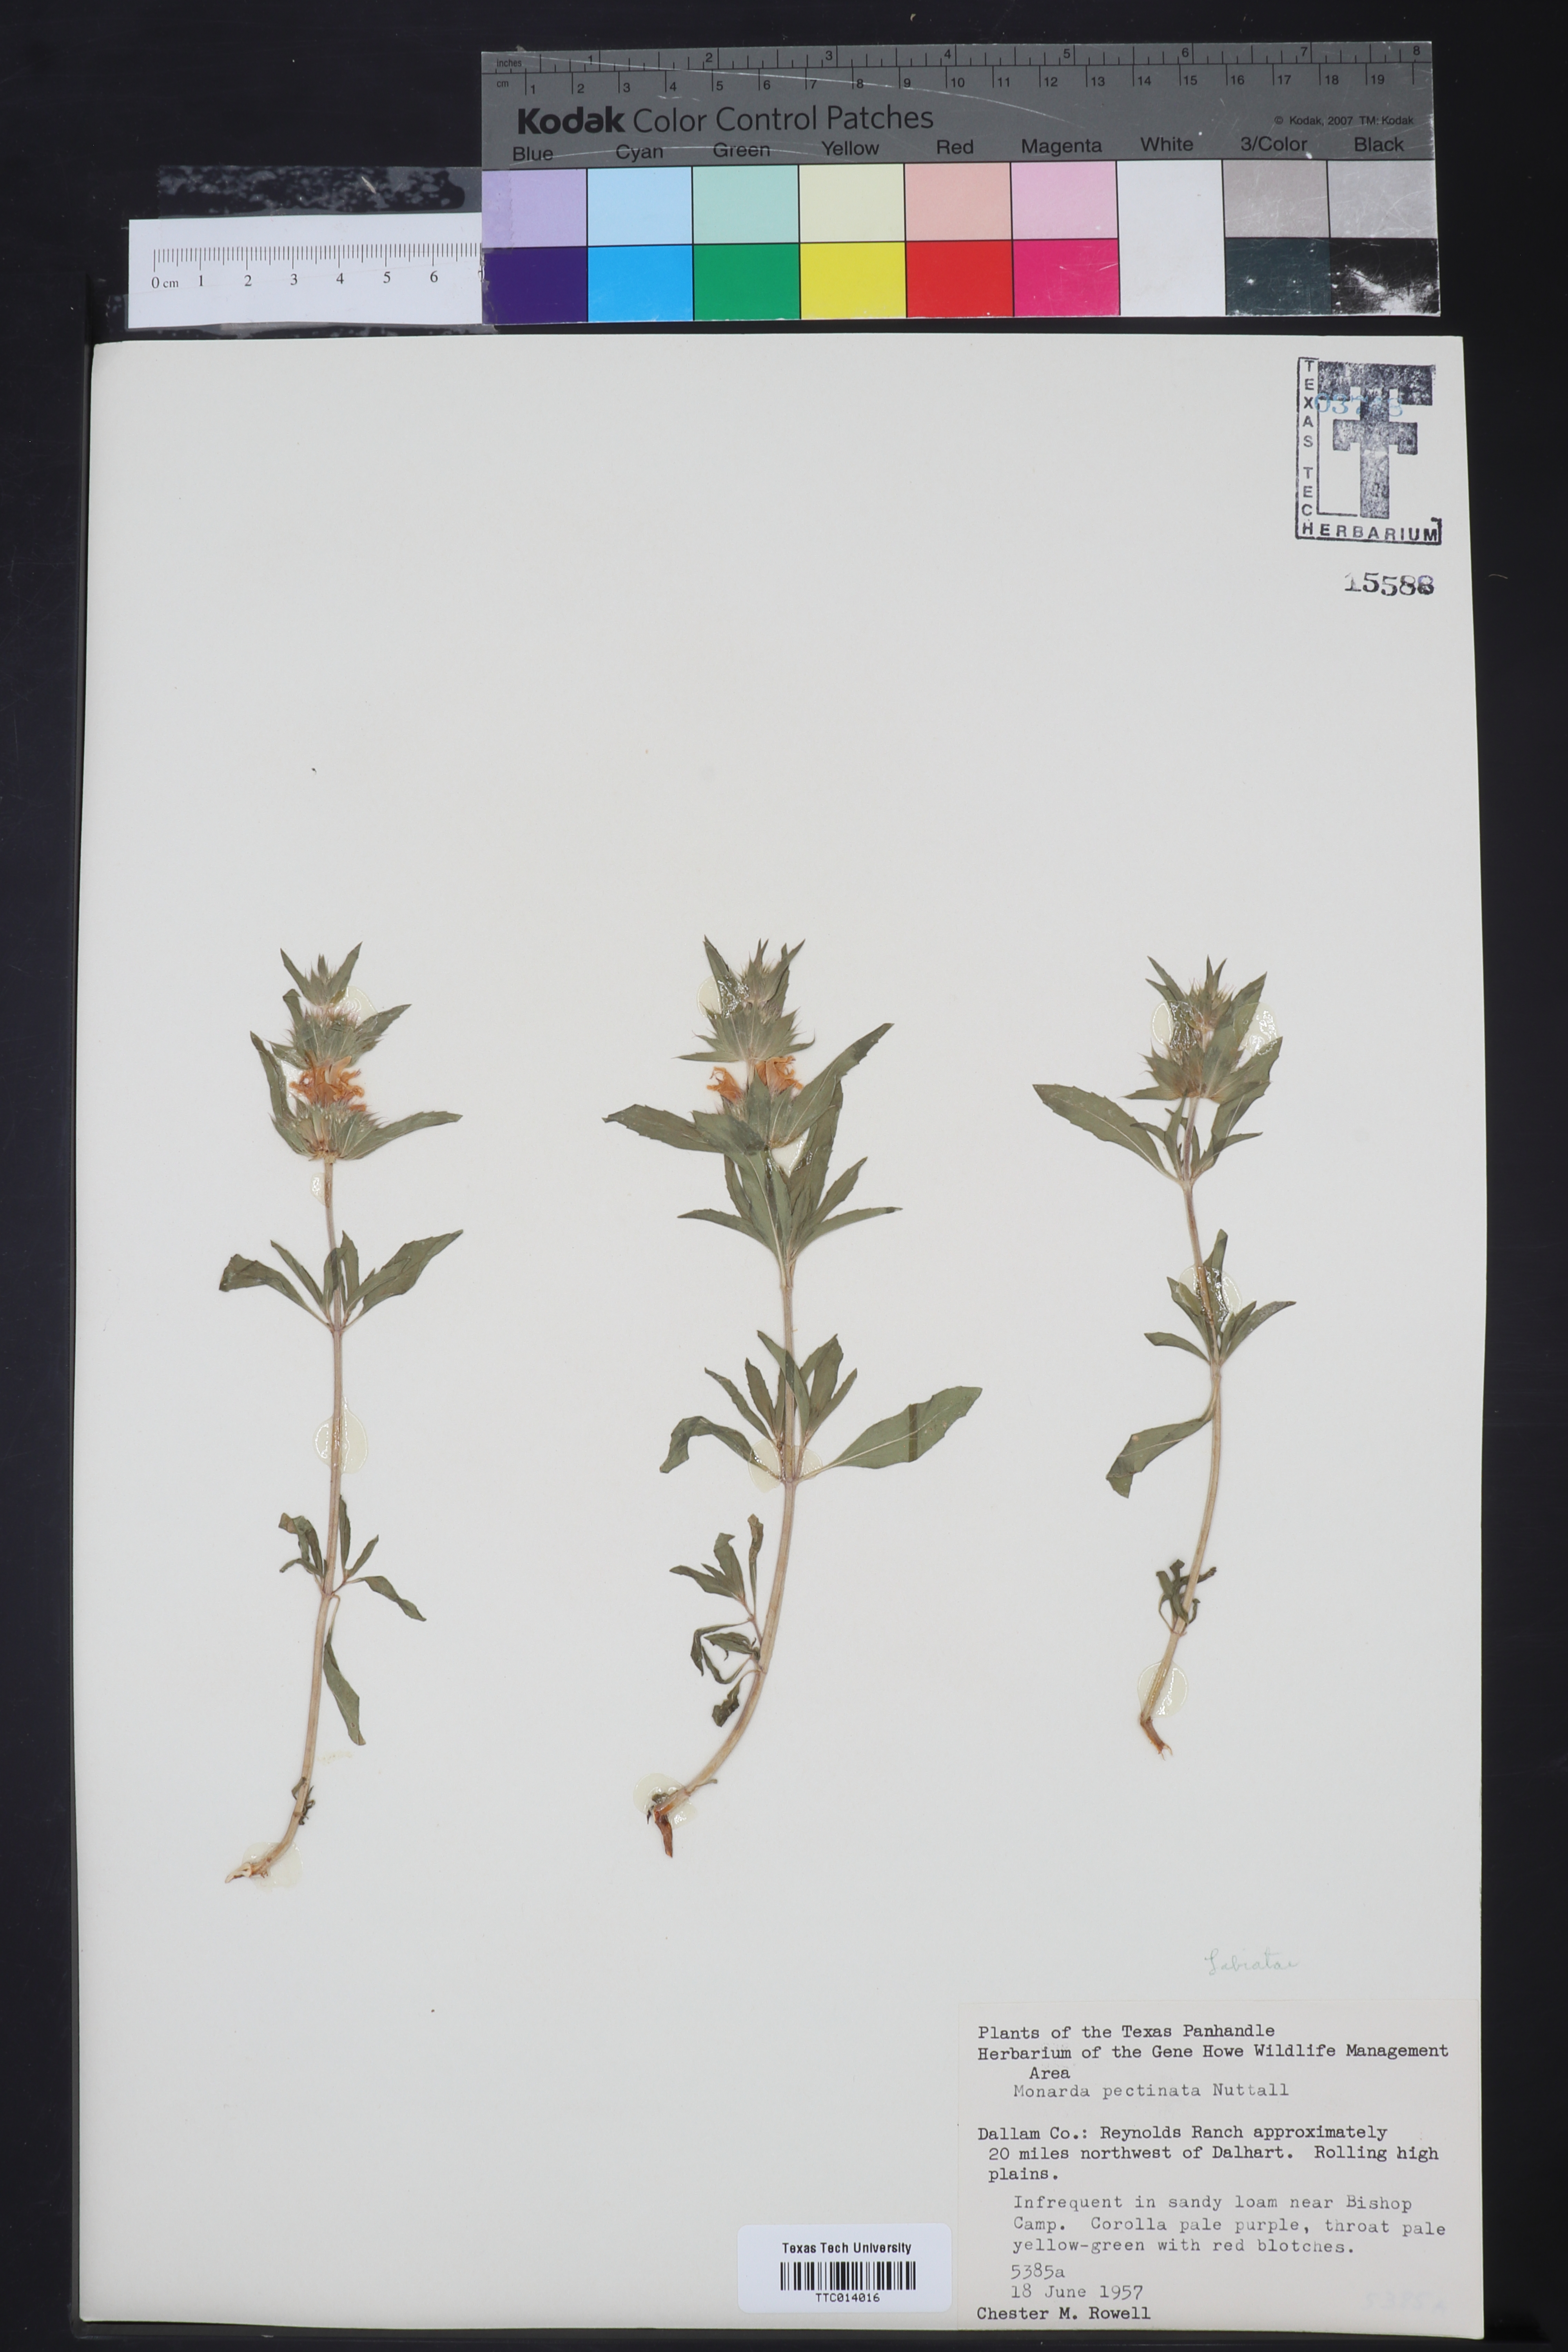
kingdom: Plantae
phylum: Tracheophyta
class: Magnoliopsida
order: Lamiales
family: Lamiaceae
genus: Monarda
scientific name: Monarda pectinata
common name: Plains beebalm
